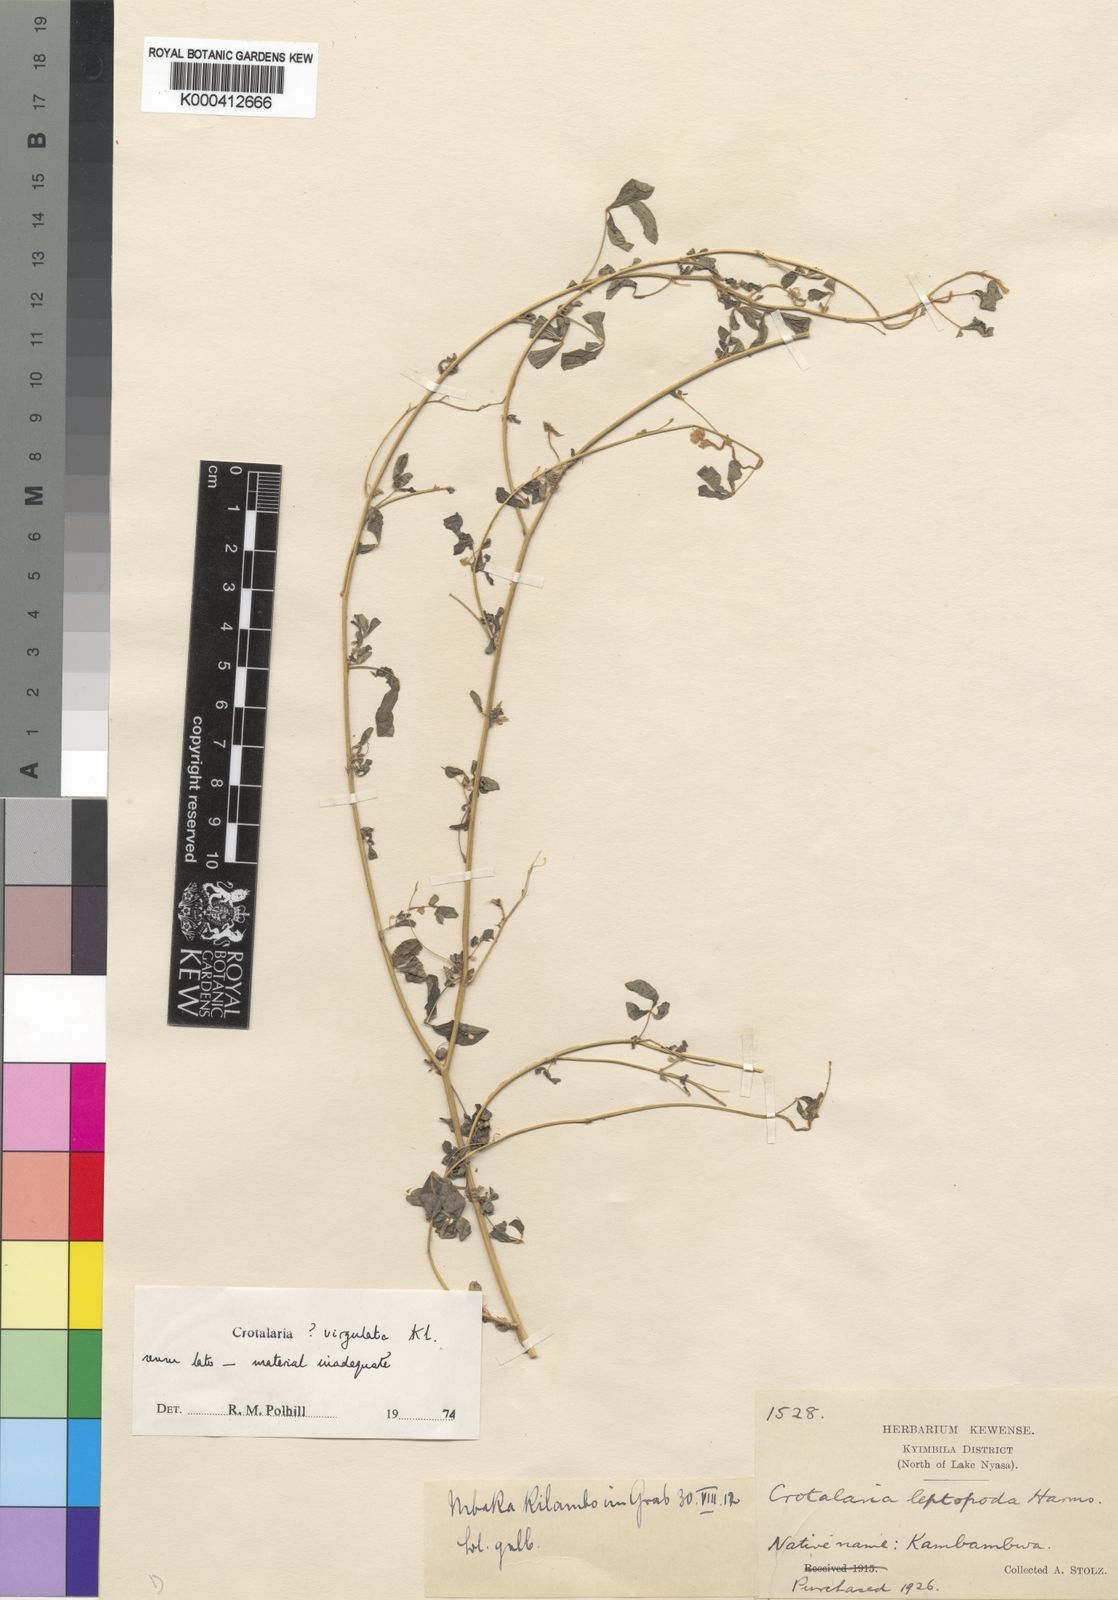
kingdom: Plantae
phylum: Tracheophyta
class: Magnoliopsida
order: Fabales
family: Fabaceae
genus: Crotalaria
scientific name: Crotalaria virgulata
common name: Thicket rattlebox
